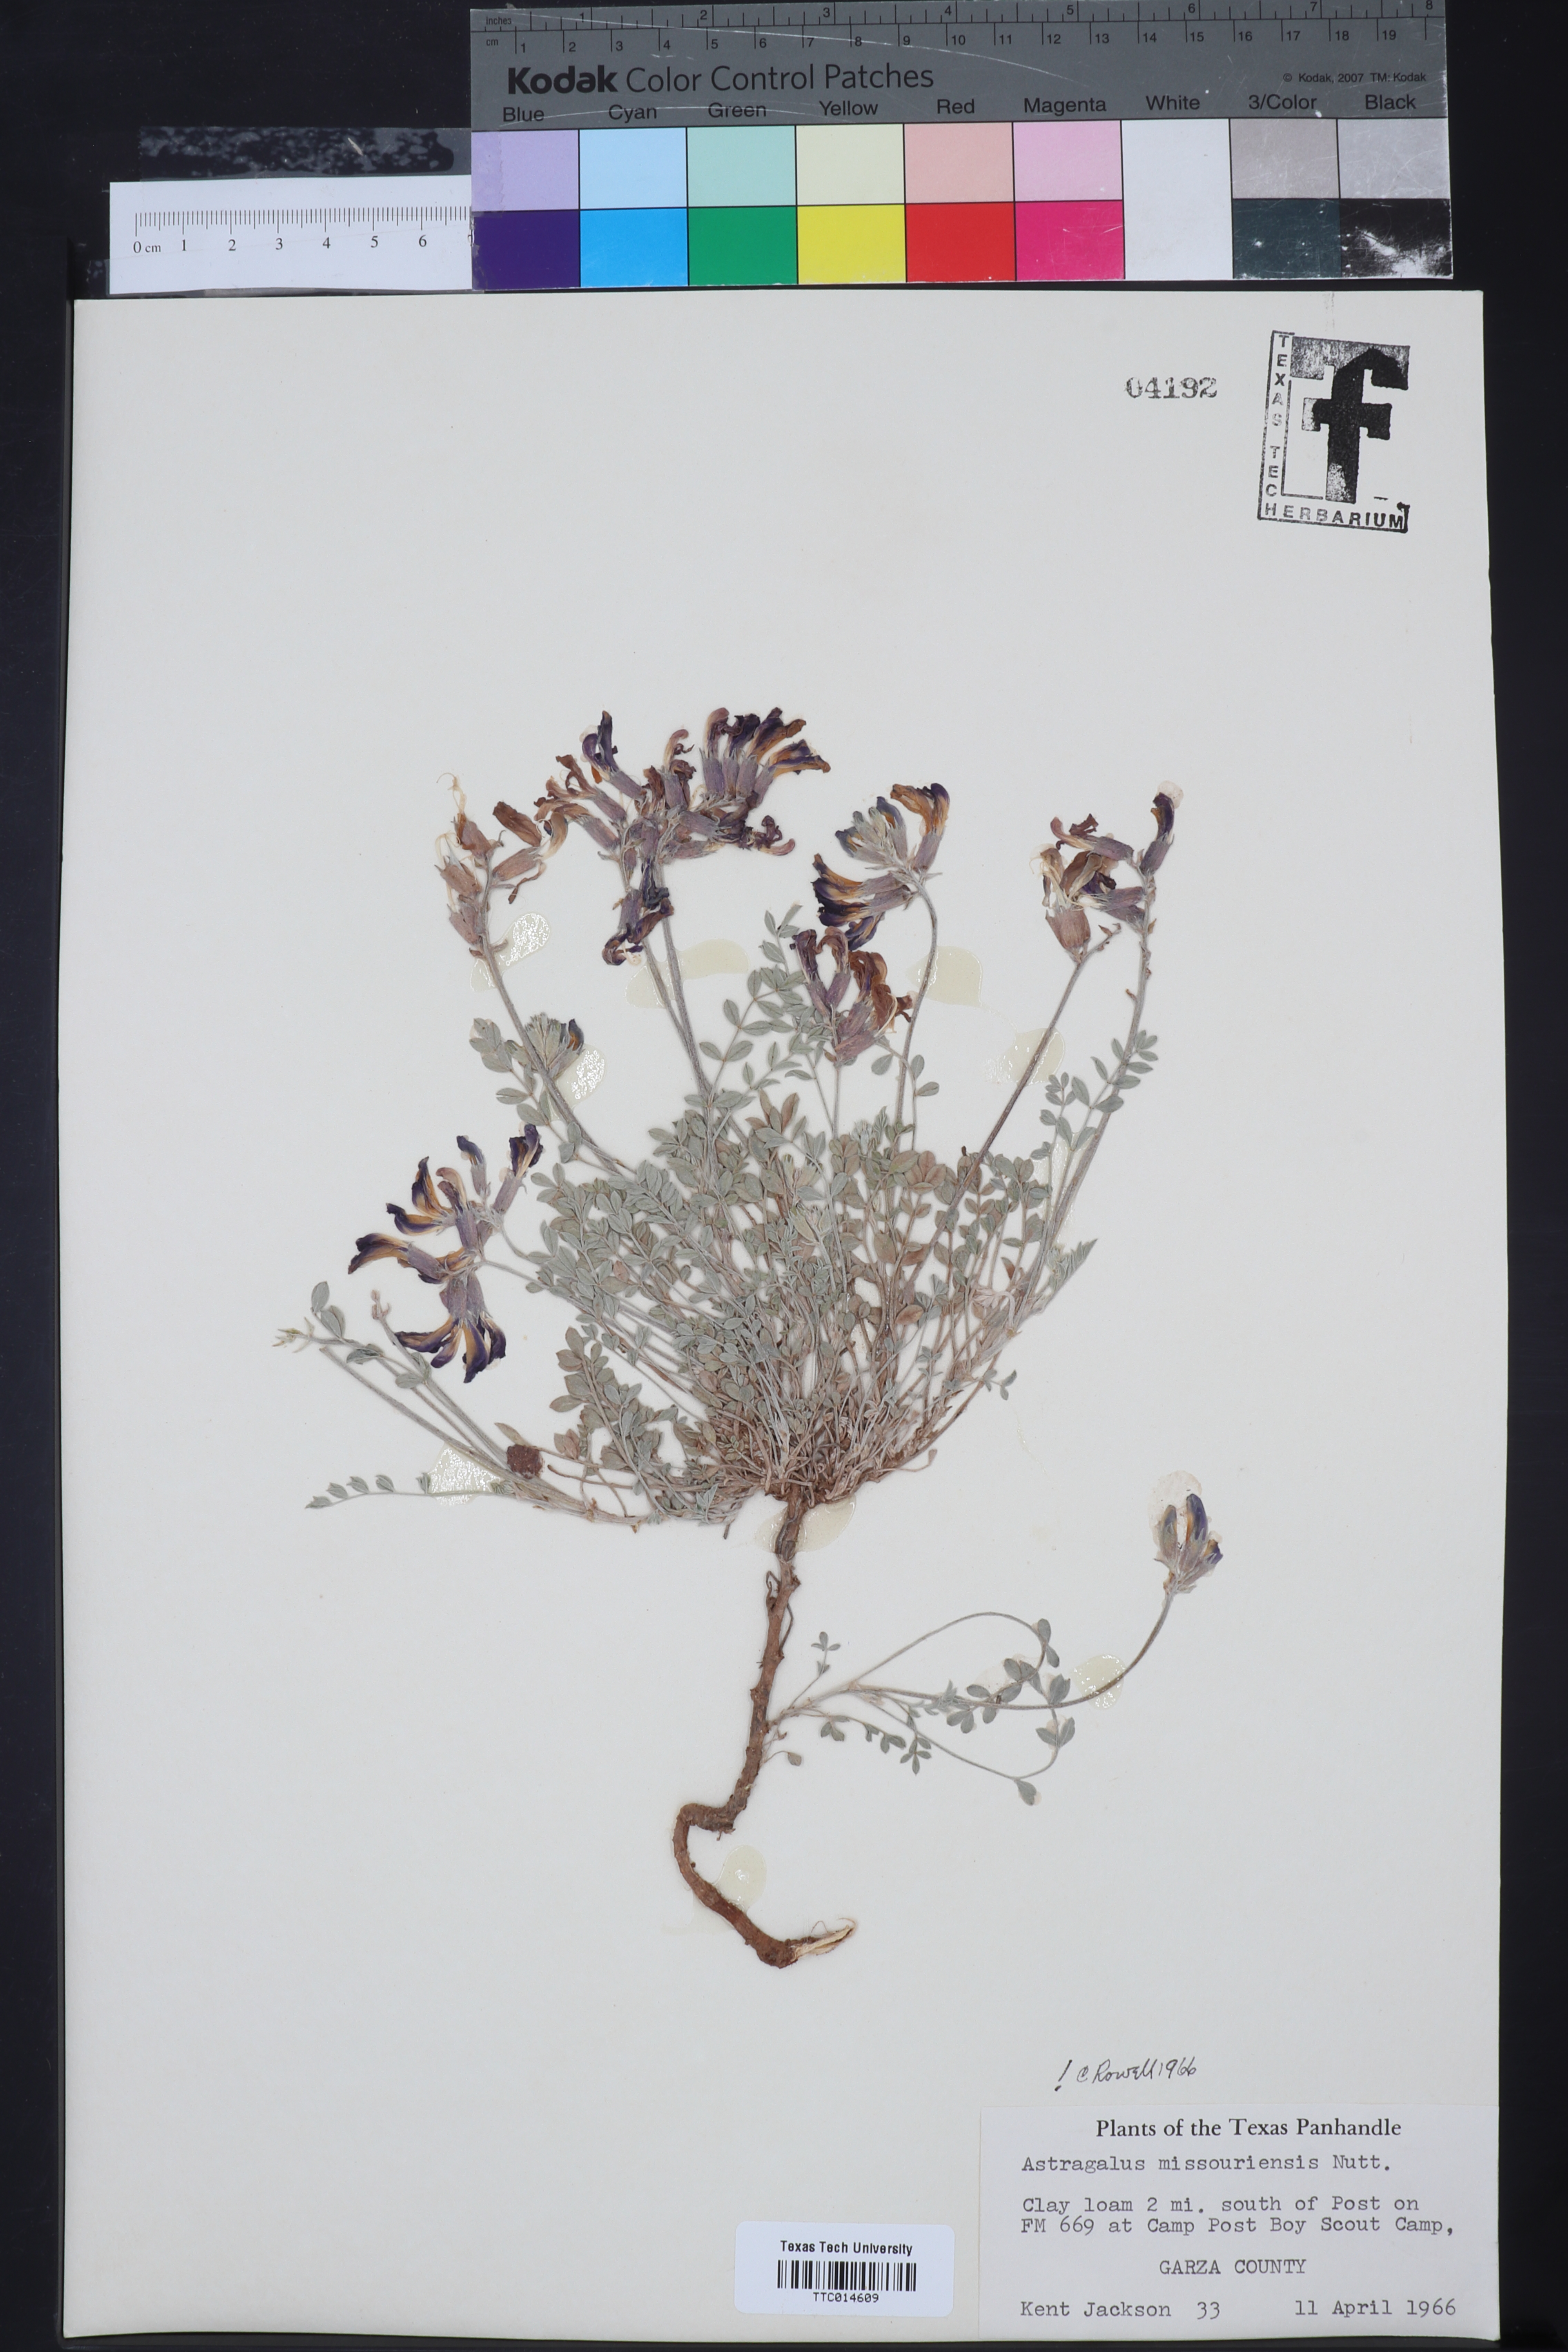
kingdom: Plantae
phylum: Tracheophyta
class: Magnoliopsida
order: Fabales
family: Fabaceae
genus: Astragalus
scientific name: Astragalus missouriensis
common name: Missouri milk-vetch
